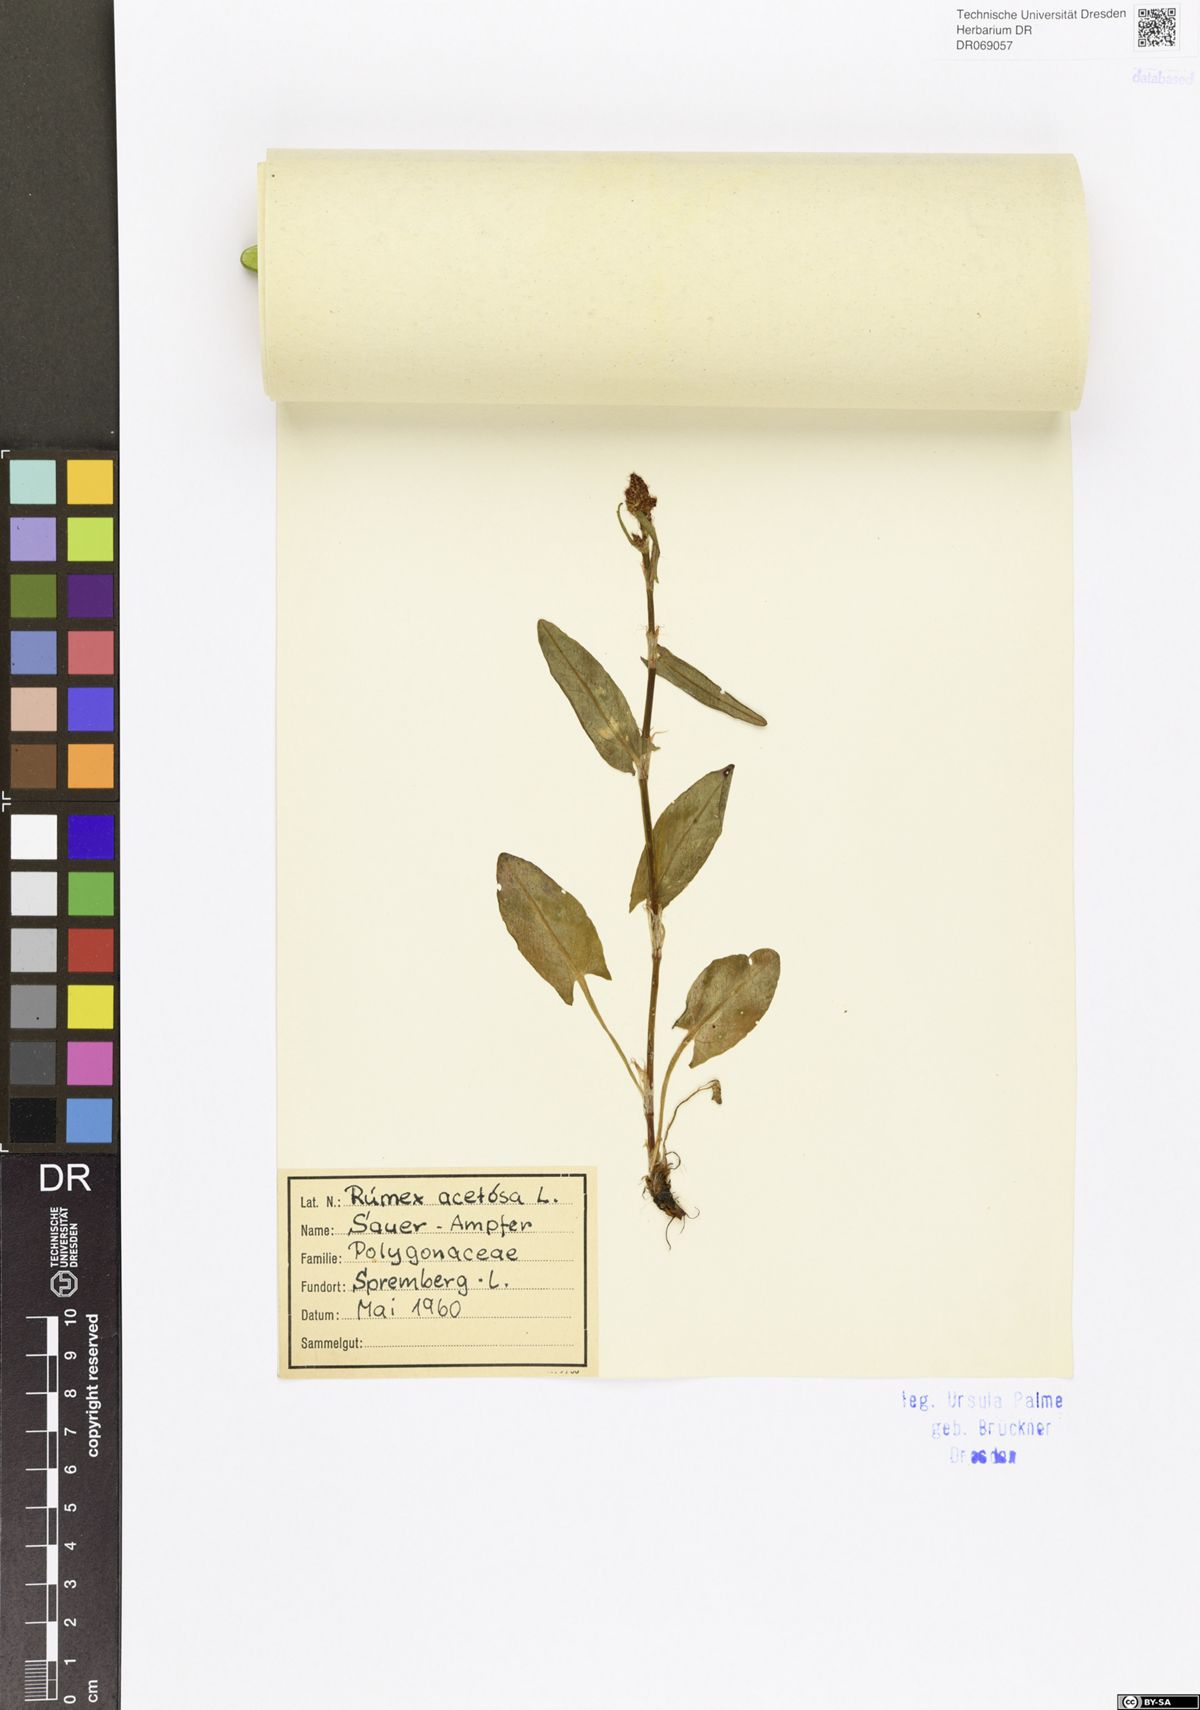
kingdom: Plantae
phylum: Tracheophyta
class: Magnoliopsida
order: Caryophyllales
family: Polygonaceae
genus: Rumex
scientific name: Rumex acetosa
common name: Garden sorrel
